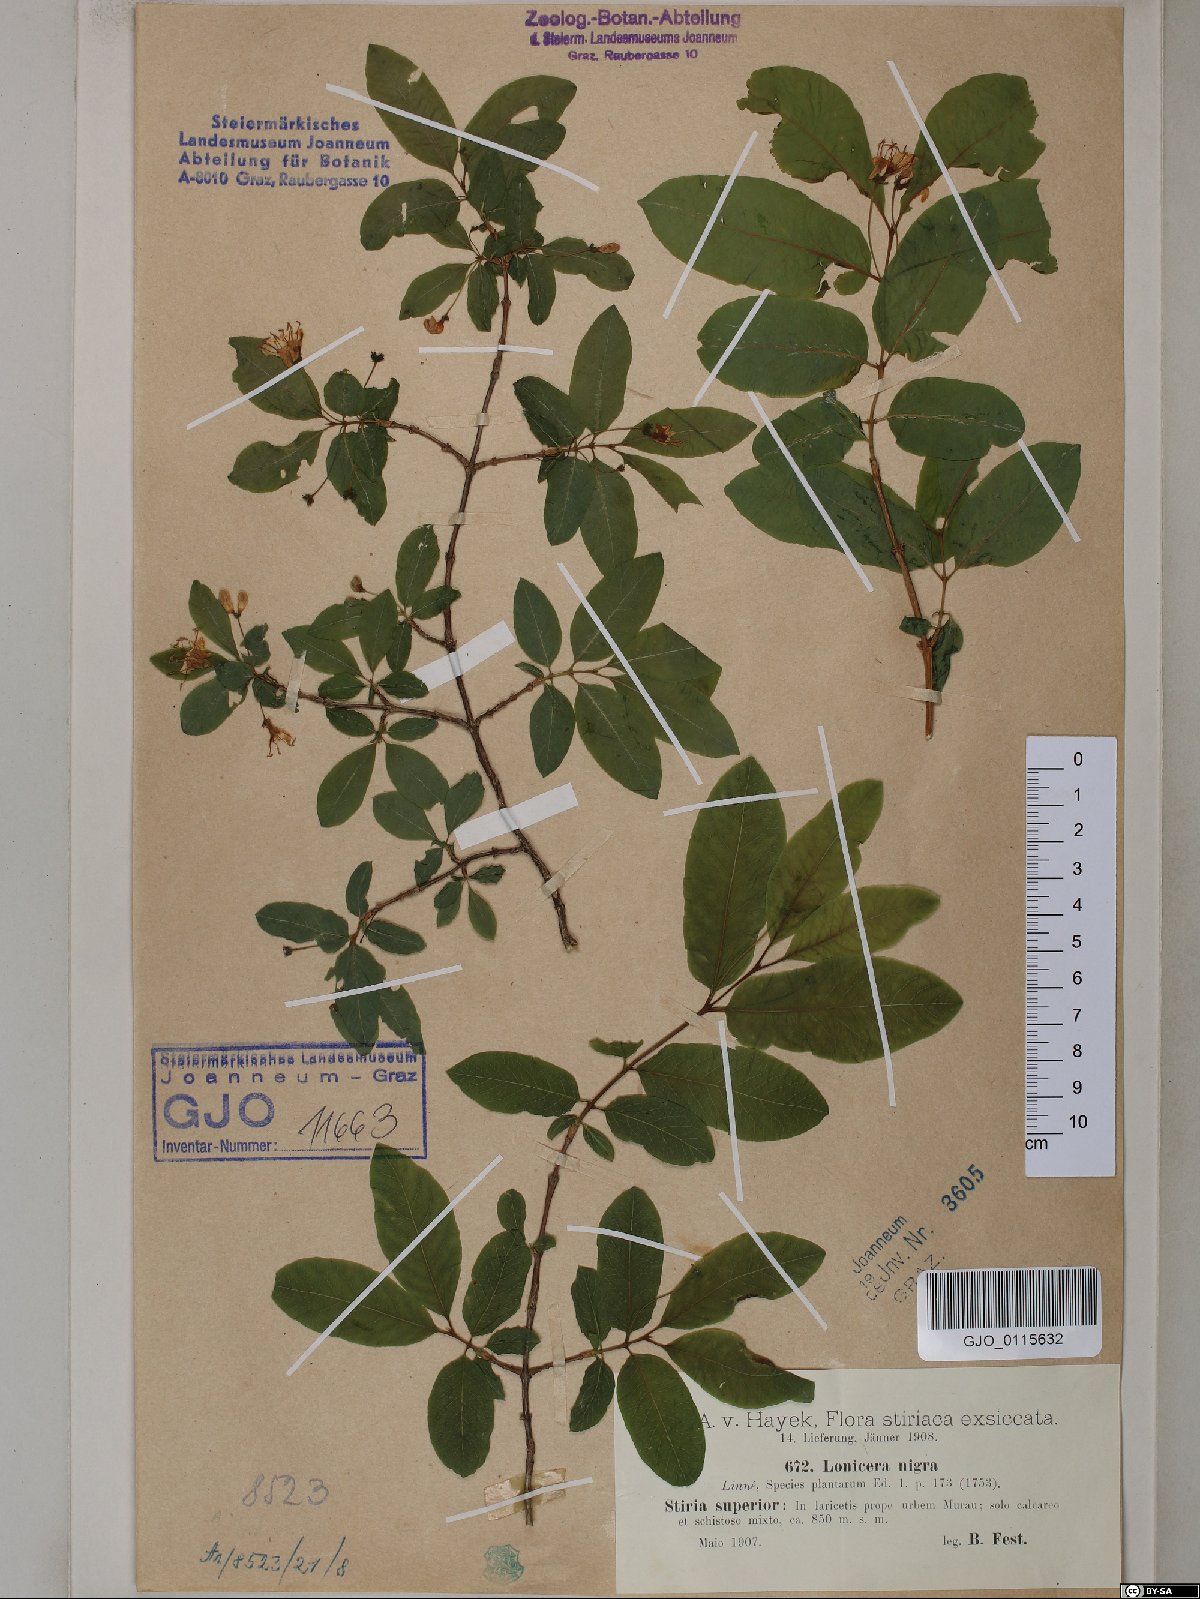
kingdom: Plantae
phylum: Tracheophyta
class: Magnoliopsida
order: Dipsacales
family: Caprifoliaceae
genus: Lonicera
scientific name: Lonicera nigra
